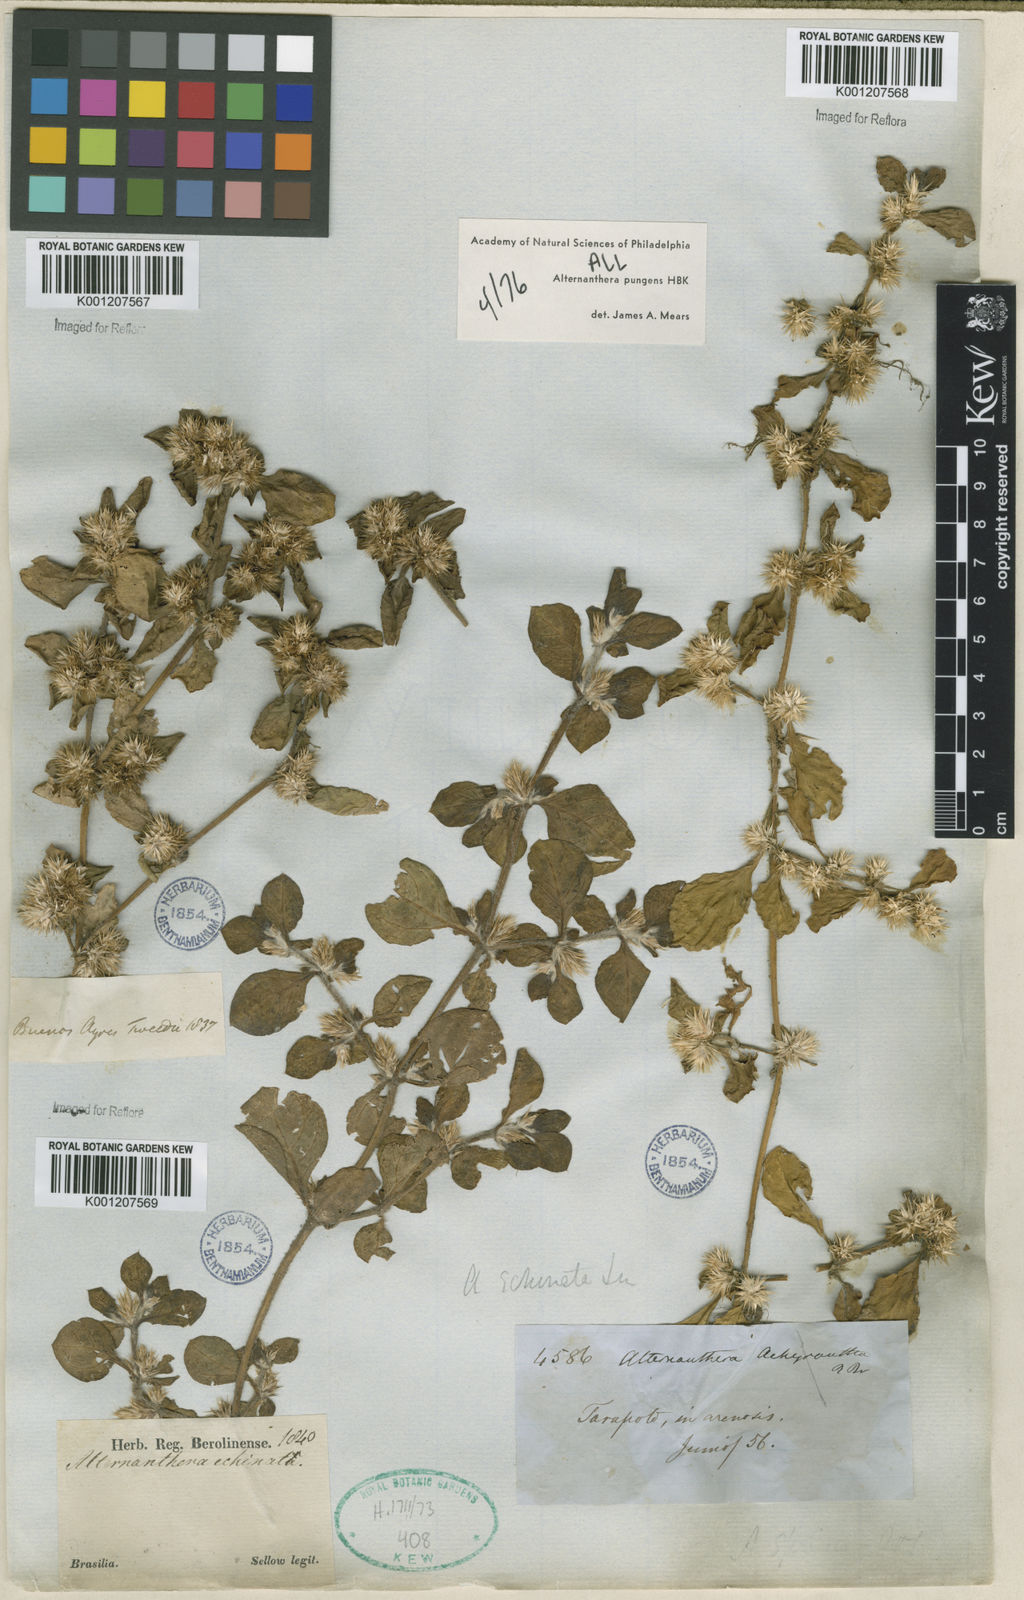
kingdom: Plantae
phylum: Tracheophyta
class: Magnoliopsida
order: Caryophyllales
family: Amaranthaceae
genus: Alternanthera
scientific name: Alternanthera pungens
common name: Khakiweed
